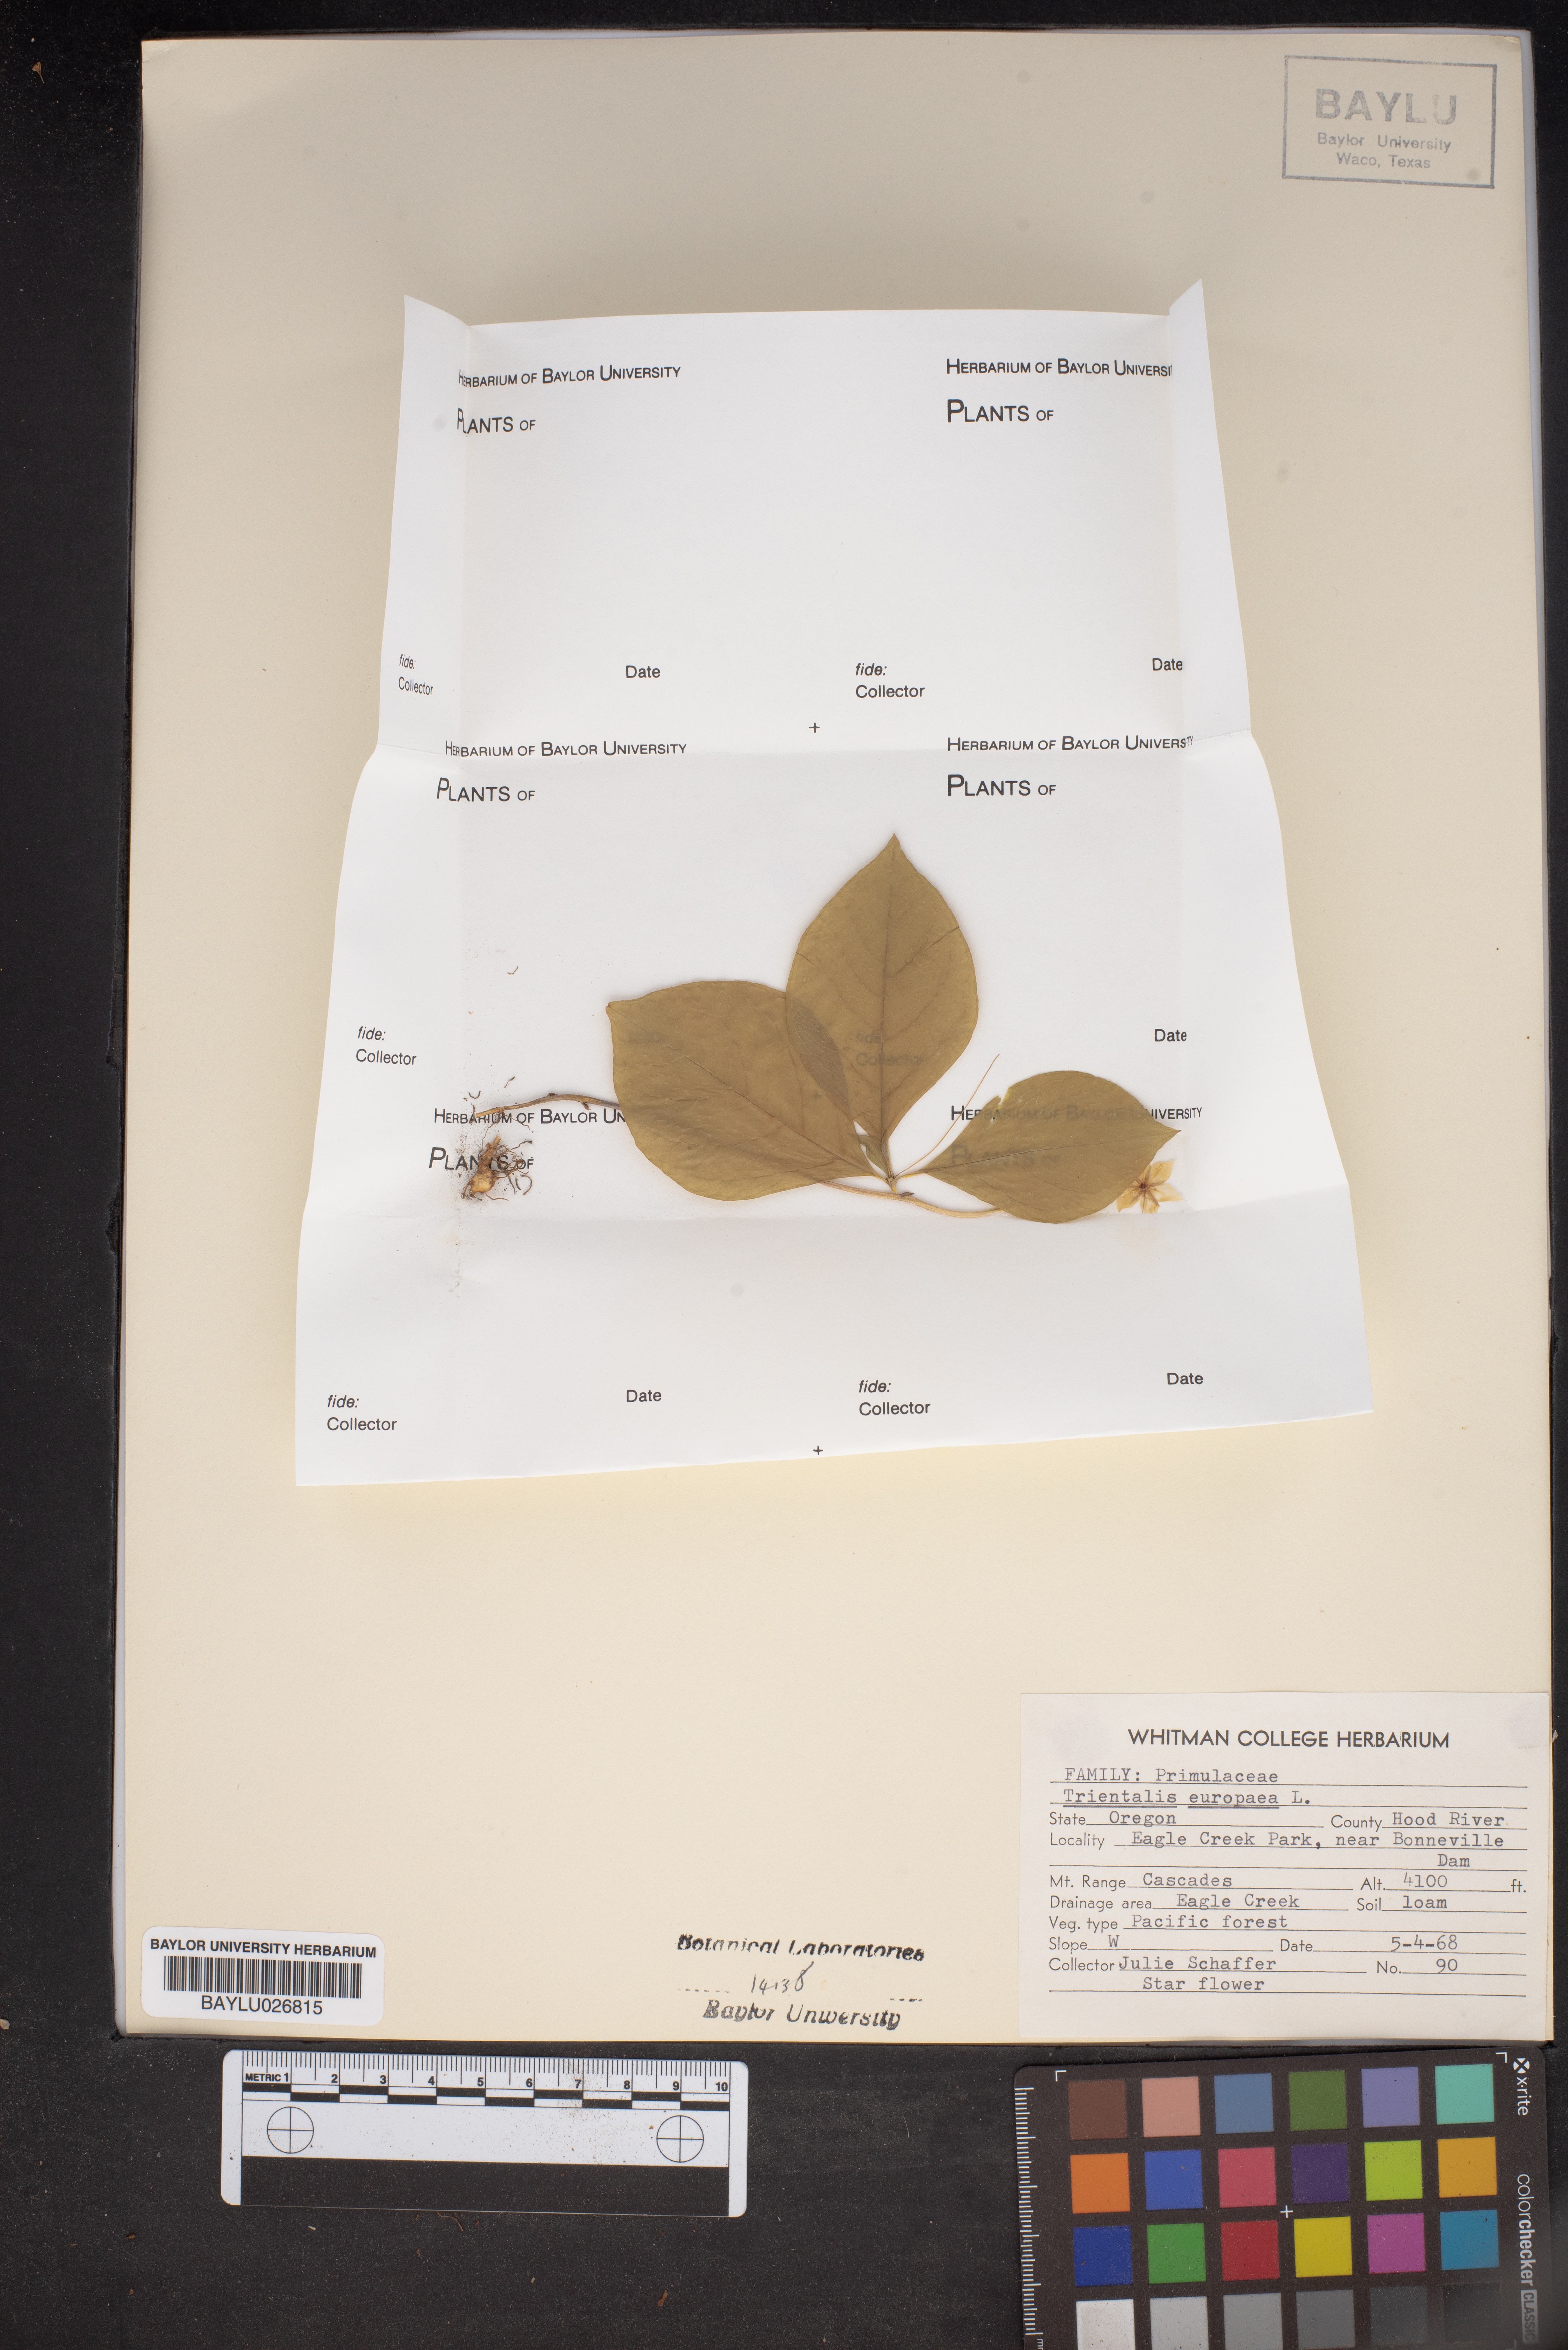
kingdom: Plantae
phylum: Tracheophyta
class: Magnoliopsida
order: Ericales
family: Primulaceae
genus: Lysimachia
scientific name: Lysimachia europaea
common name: Arctic starflower
